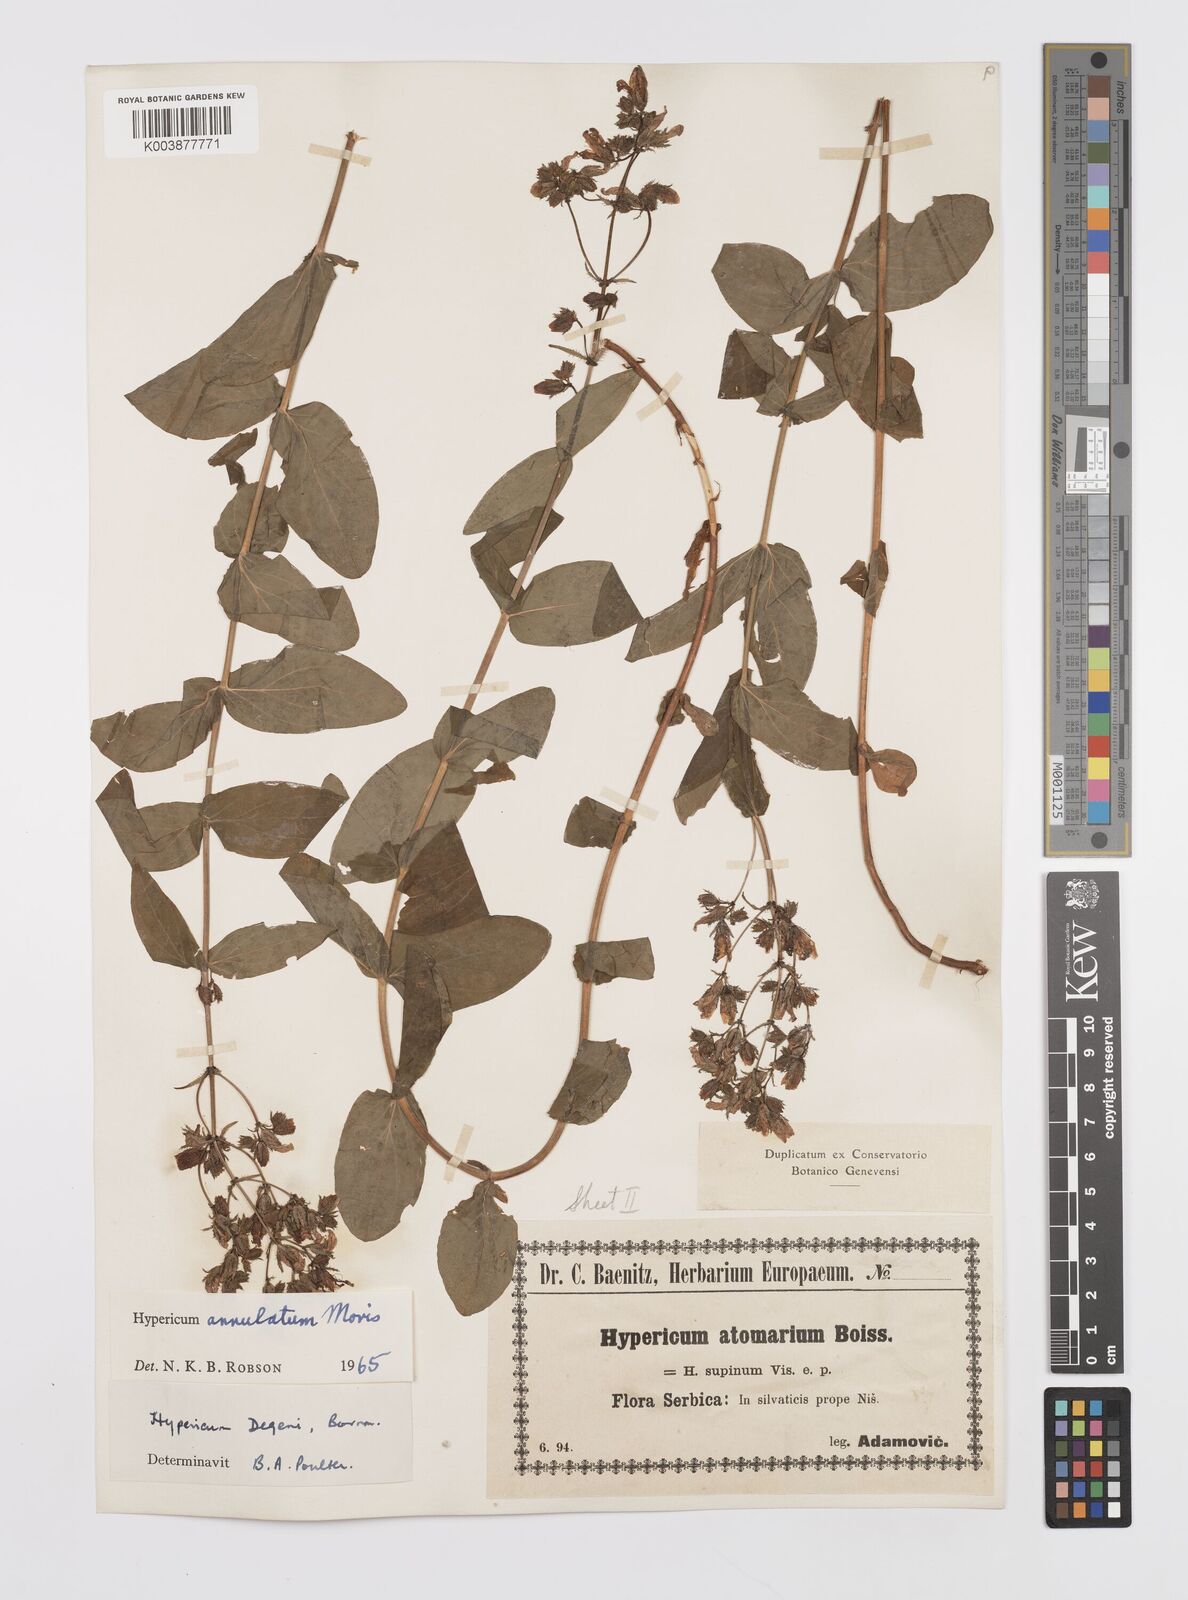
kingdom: Plantae
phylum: Tracheophyta
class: Magnoliopsida
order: Malpighiales
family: Hypericaceae
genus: Hypericum
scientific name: Hypericum annulatum
